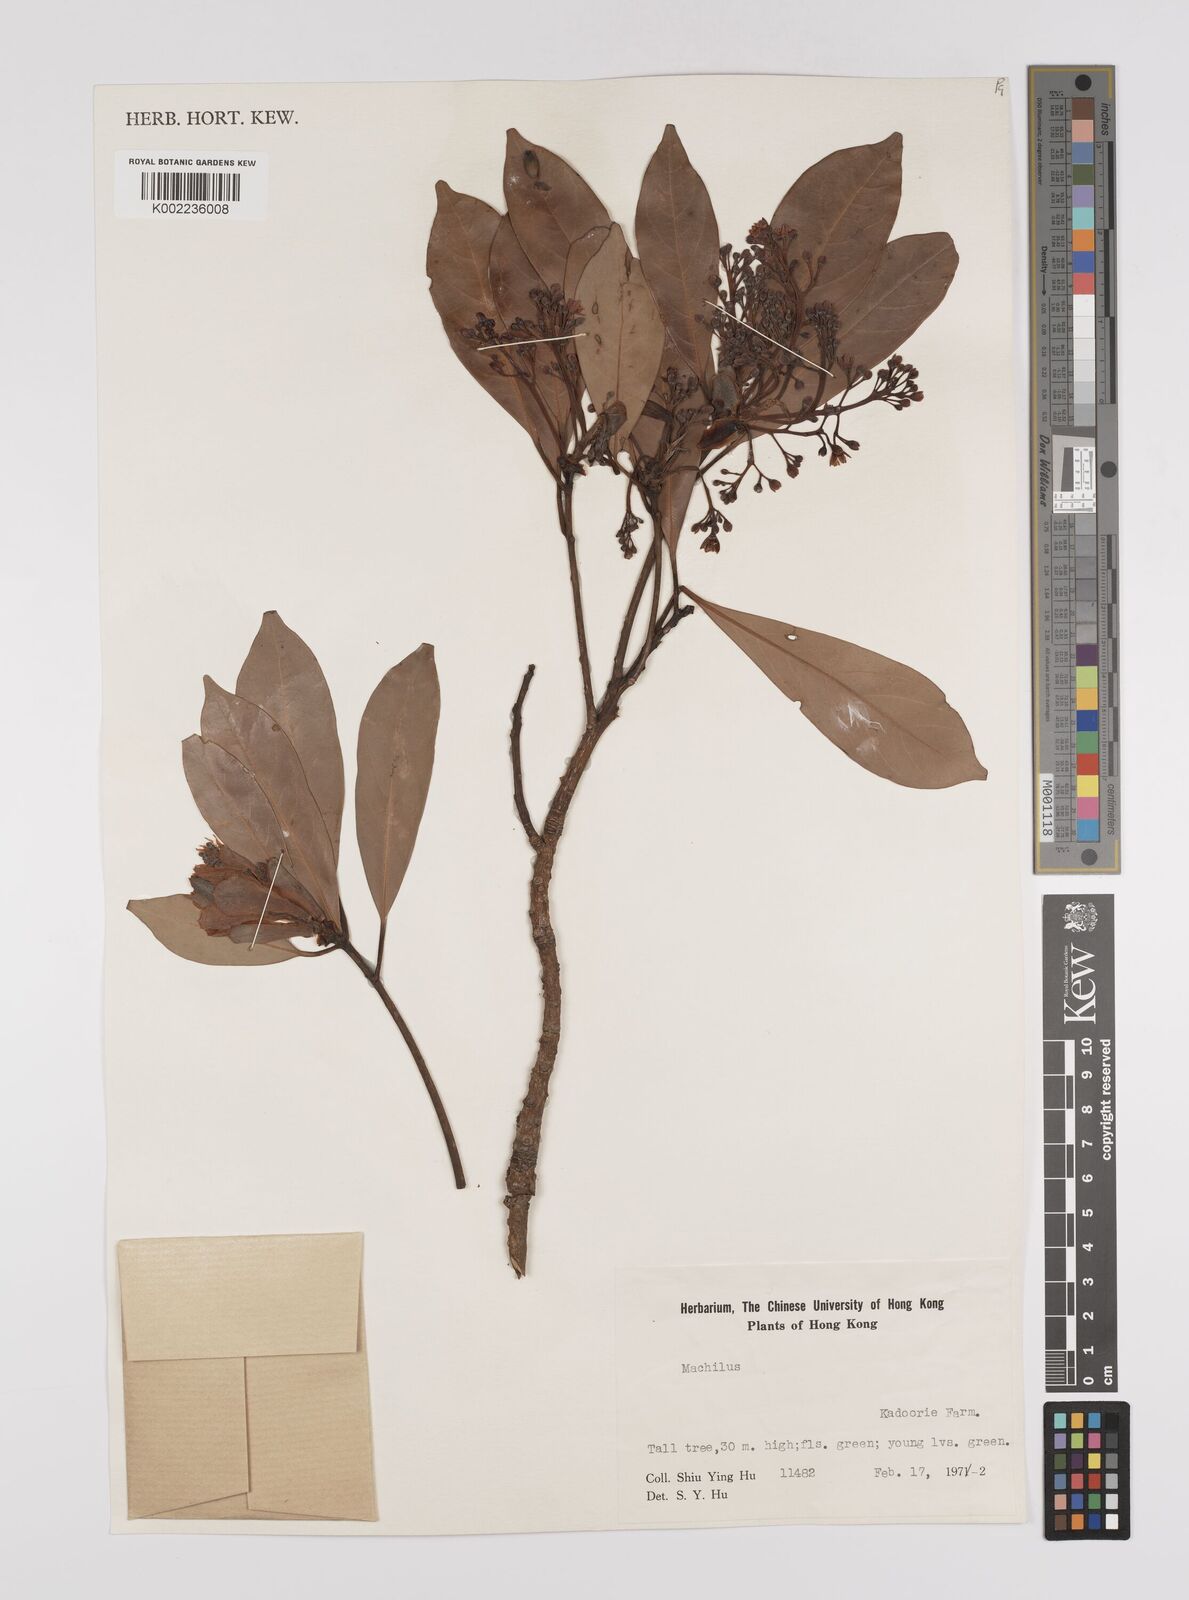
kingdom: Plantae
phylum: Tracheophyta
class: Magnoliopsida
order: Laurales
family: Lauraceae
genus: Persea
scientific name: Persea
